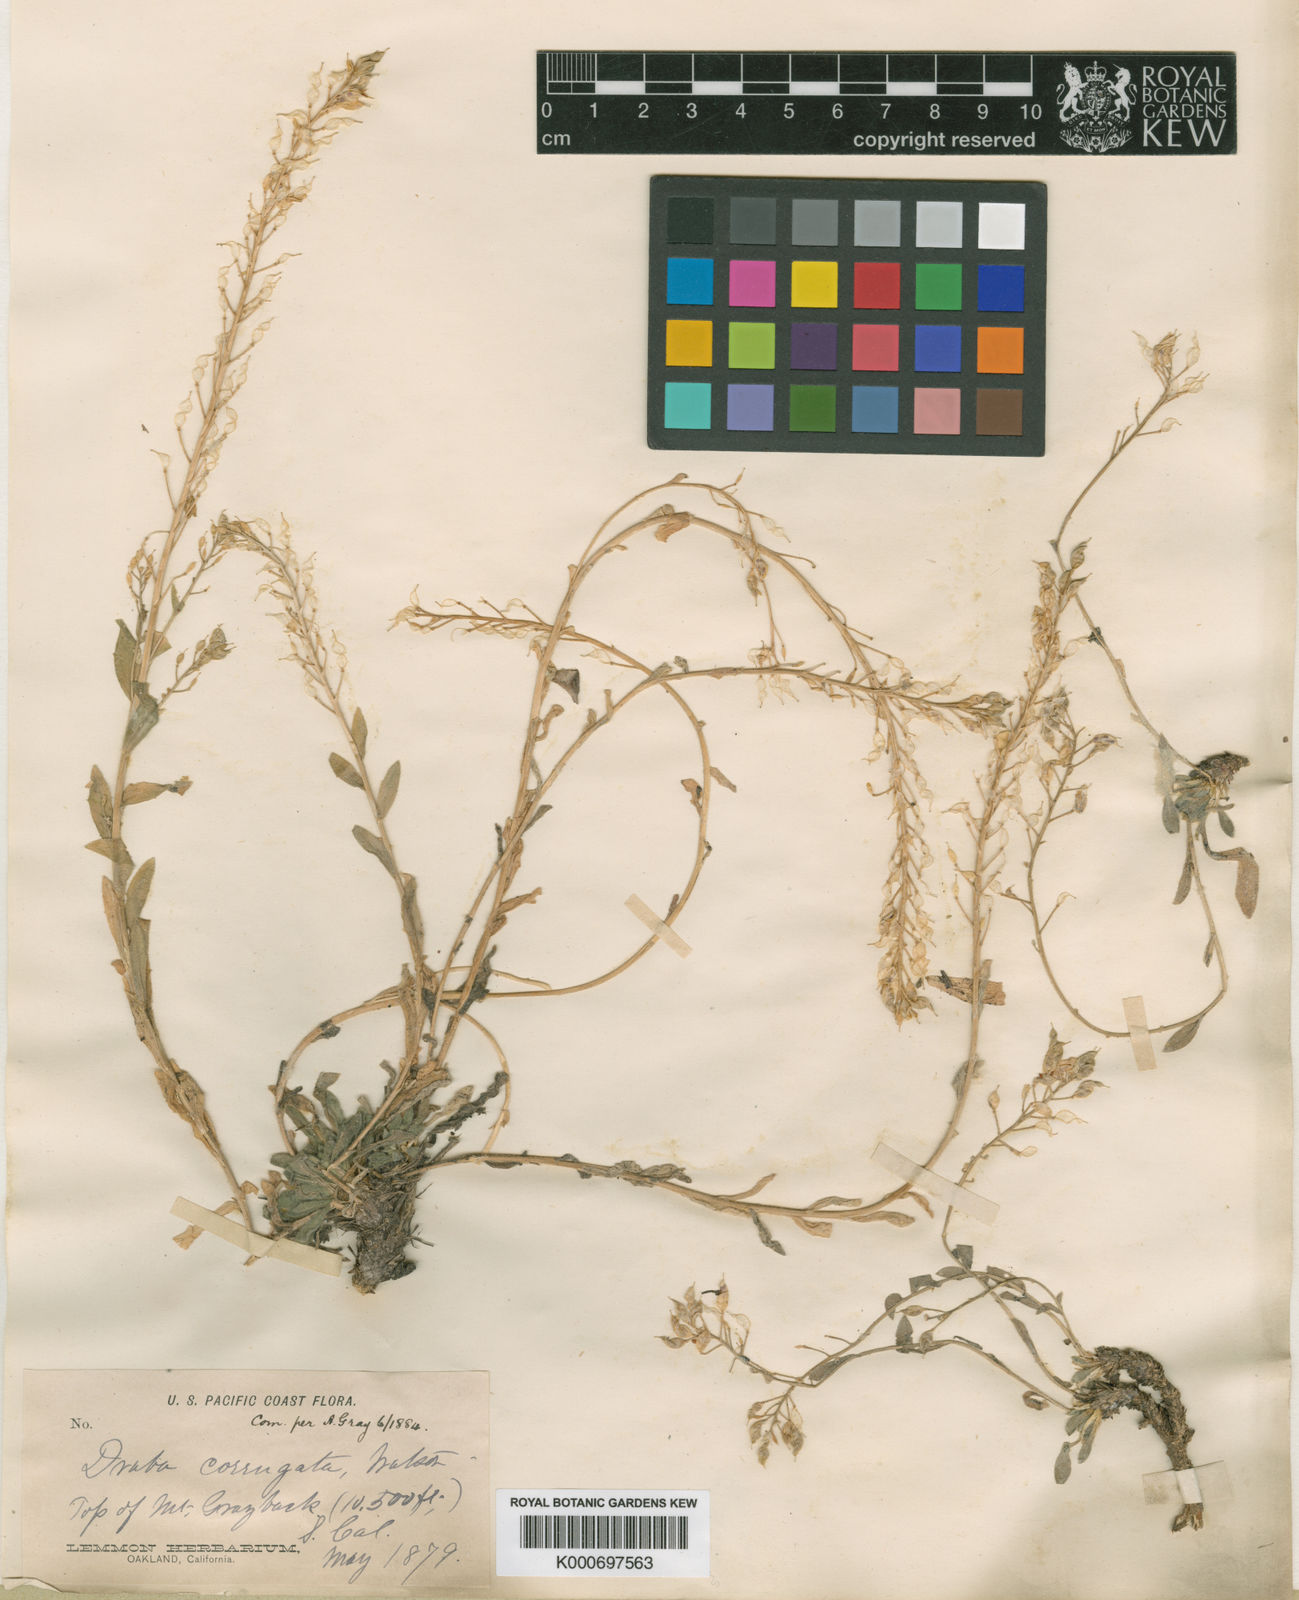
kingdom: Plantae
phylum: Tracheophyta
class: Magnoliopsida
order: Brassicales
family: Brassicaceae
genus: Draba
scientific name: Draba corrugata
